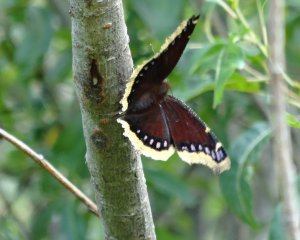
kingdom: Animalia
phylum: Arthropoda
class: Insecta
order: Lepidoptera
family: Nymphalidae
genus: Nymphalis
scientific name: Nymphalis antiopa
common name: Mourning Cloak
